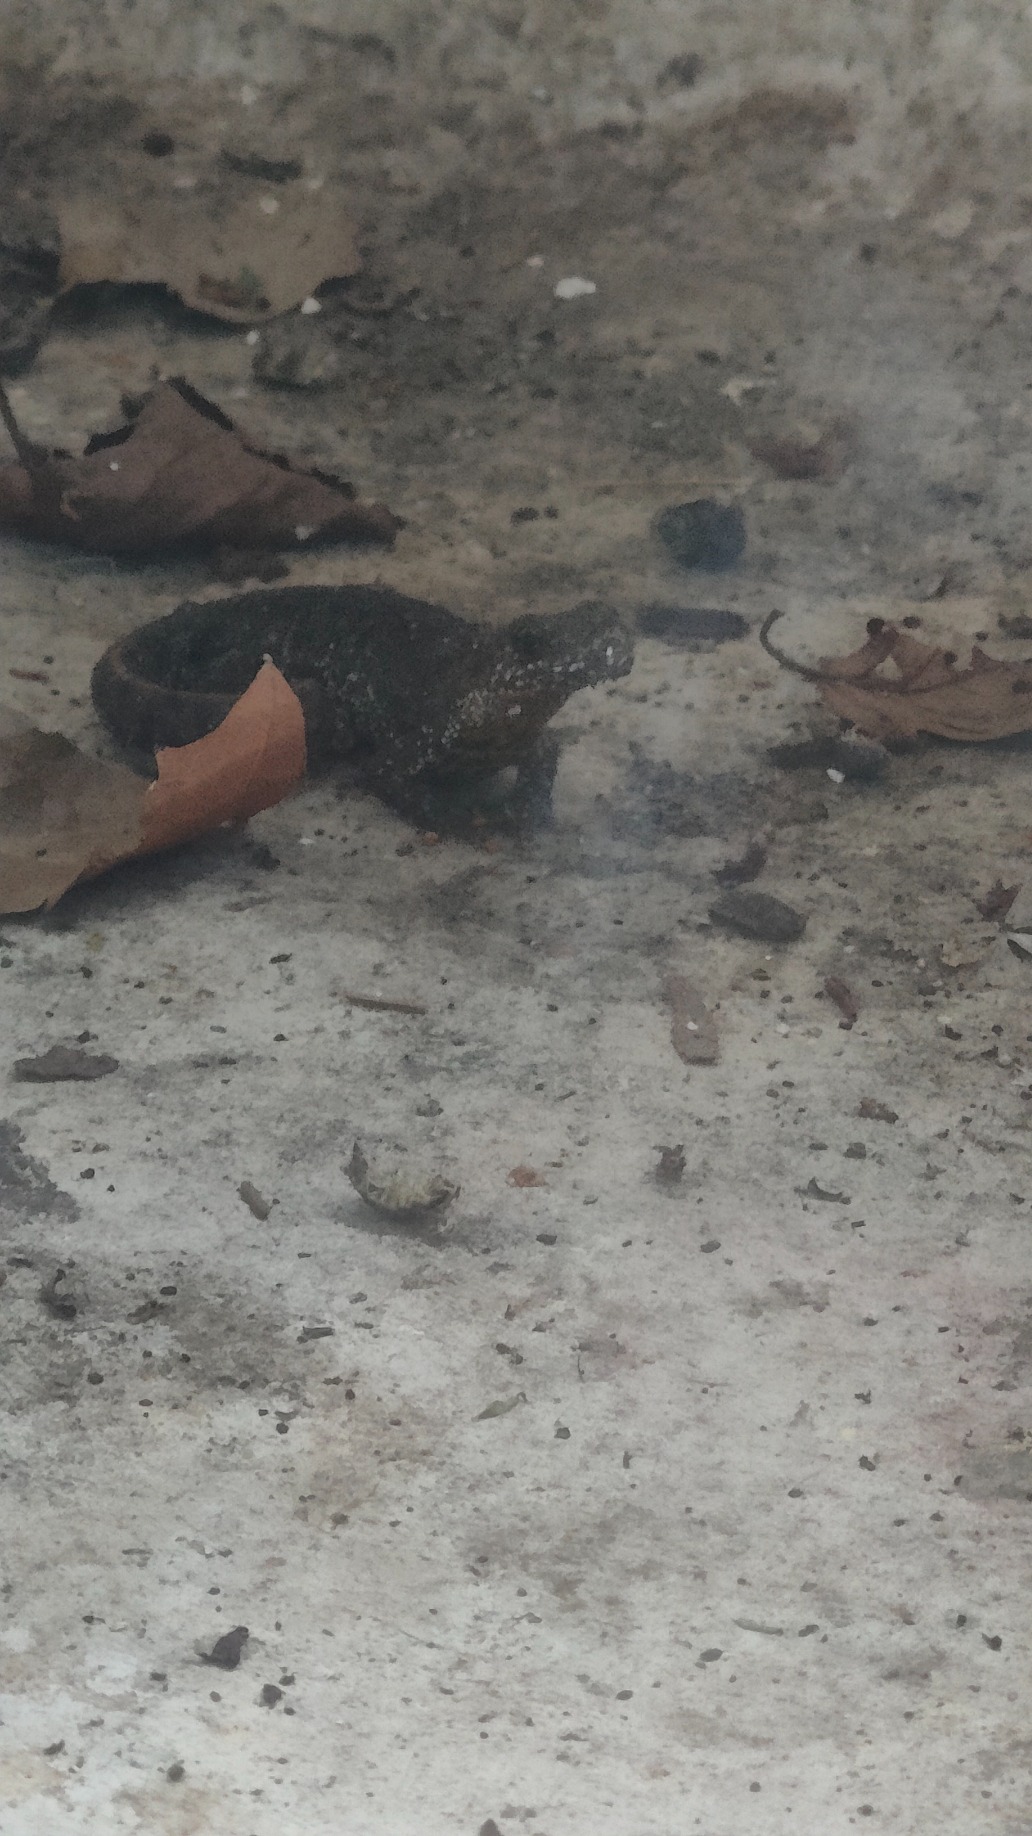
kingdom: Animalia
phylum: Chordata
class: Amphibia
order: Caudata
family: Salamandridae
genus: Triturus
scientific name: Triturus cristatus
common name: Stor vandsalamander
